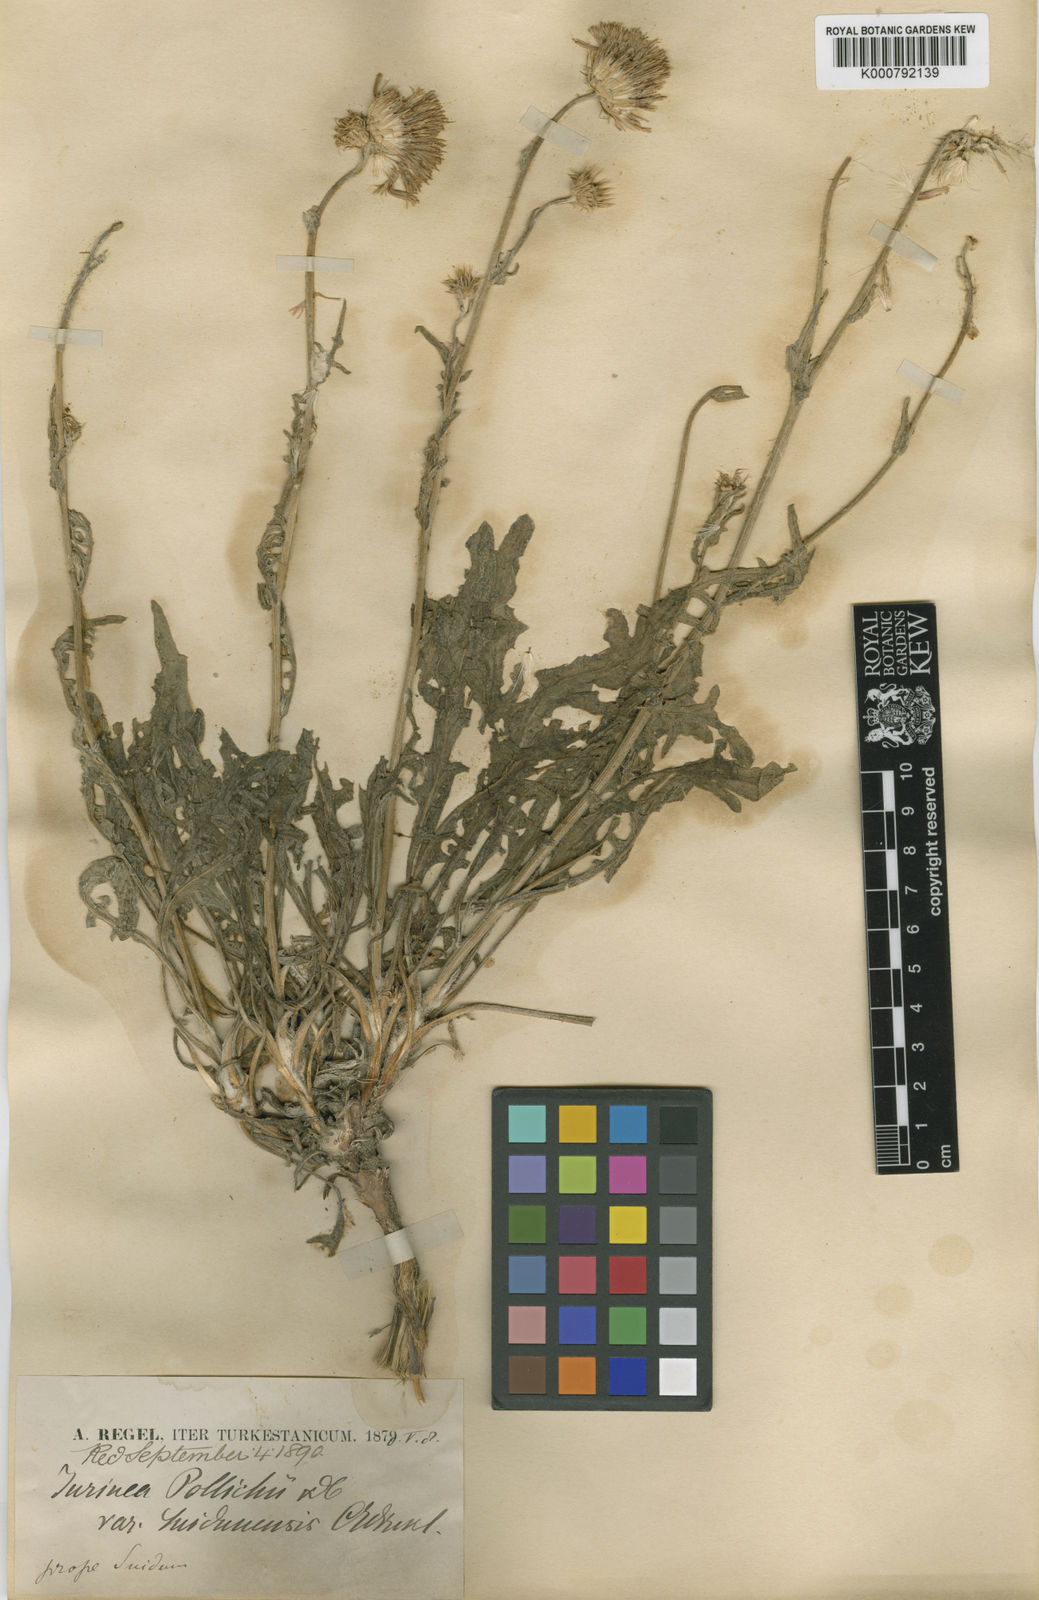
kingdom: Plantae
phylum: Tracheophyta
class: Magnoliopsida
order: Asterales
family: Asteraceae
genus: Jurinea
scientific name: Jurinea cyanoides
